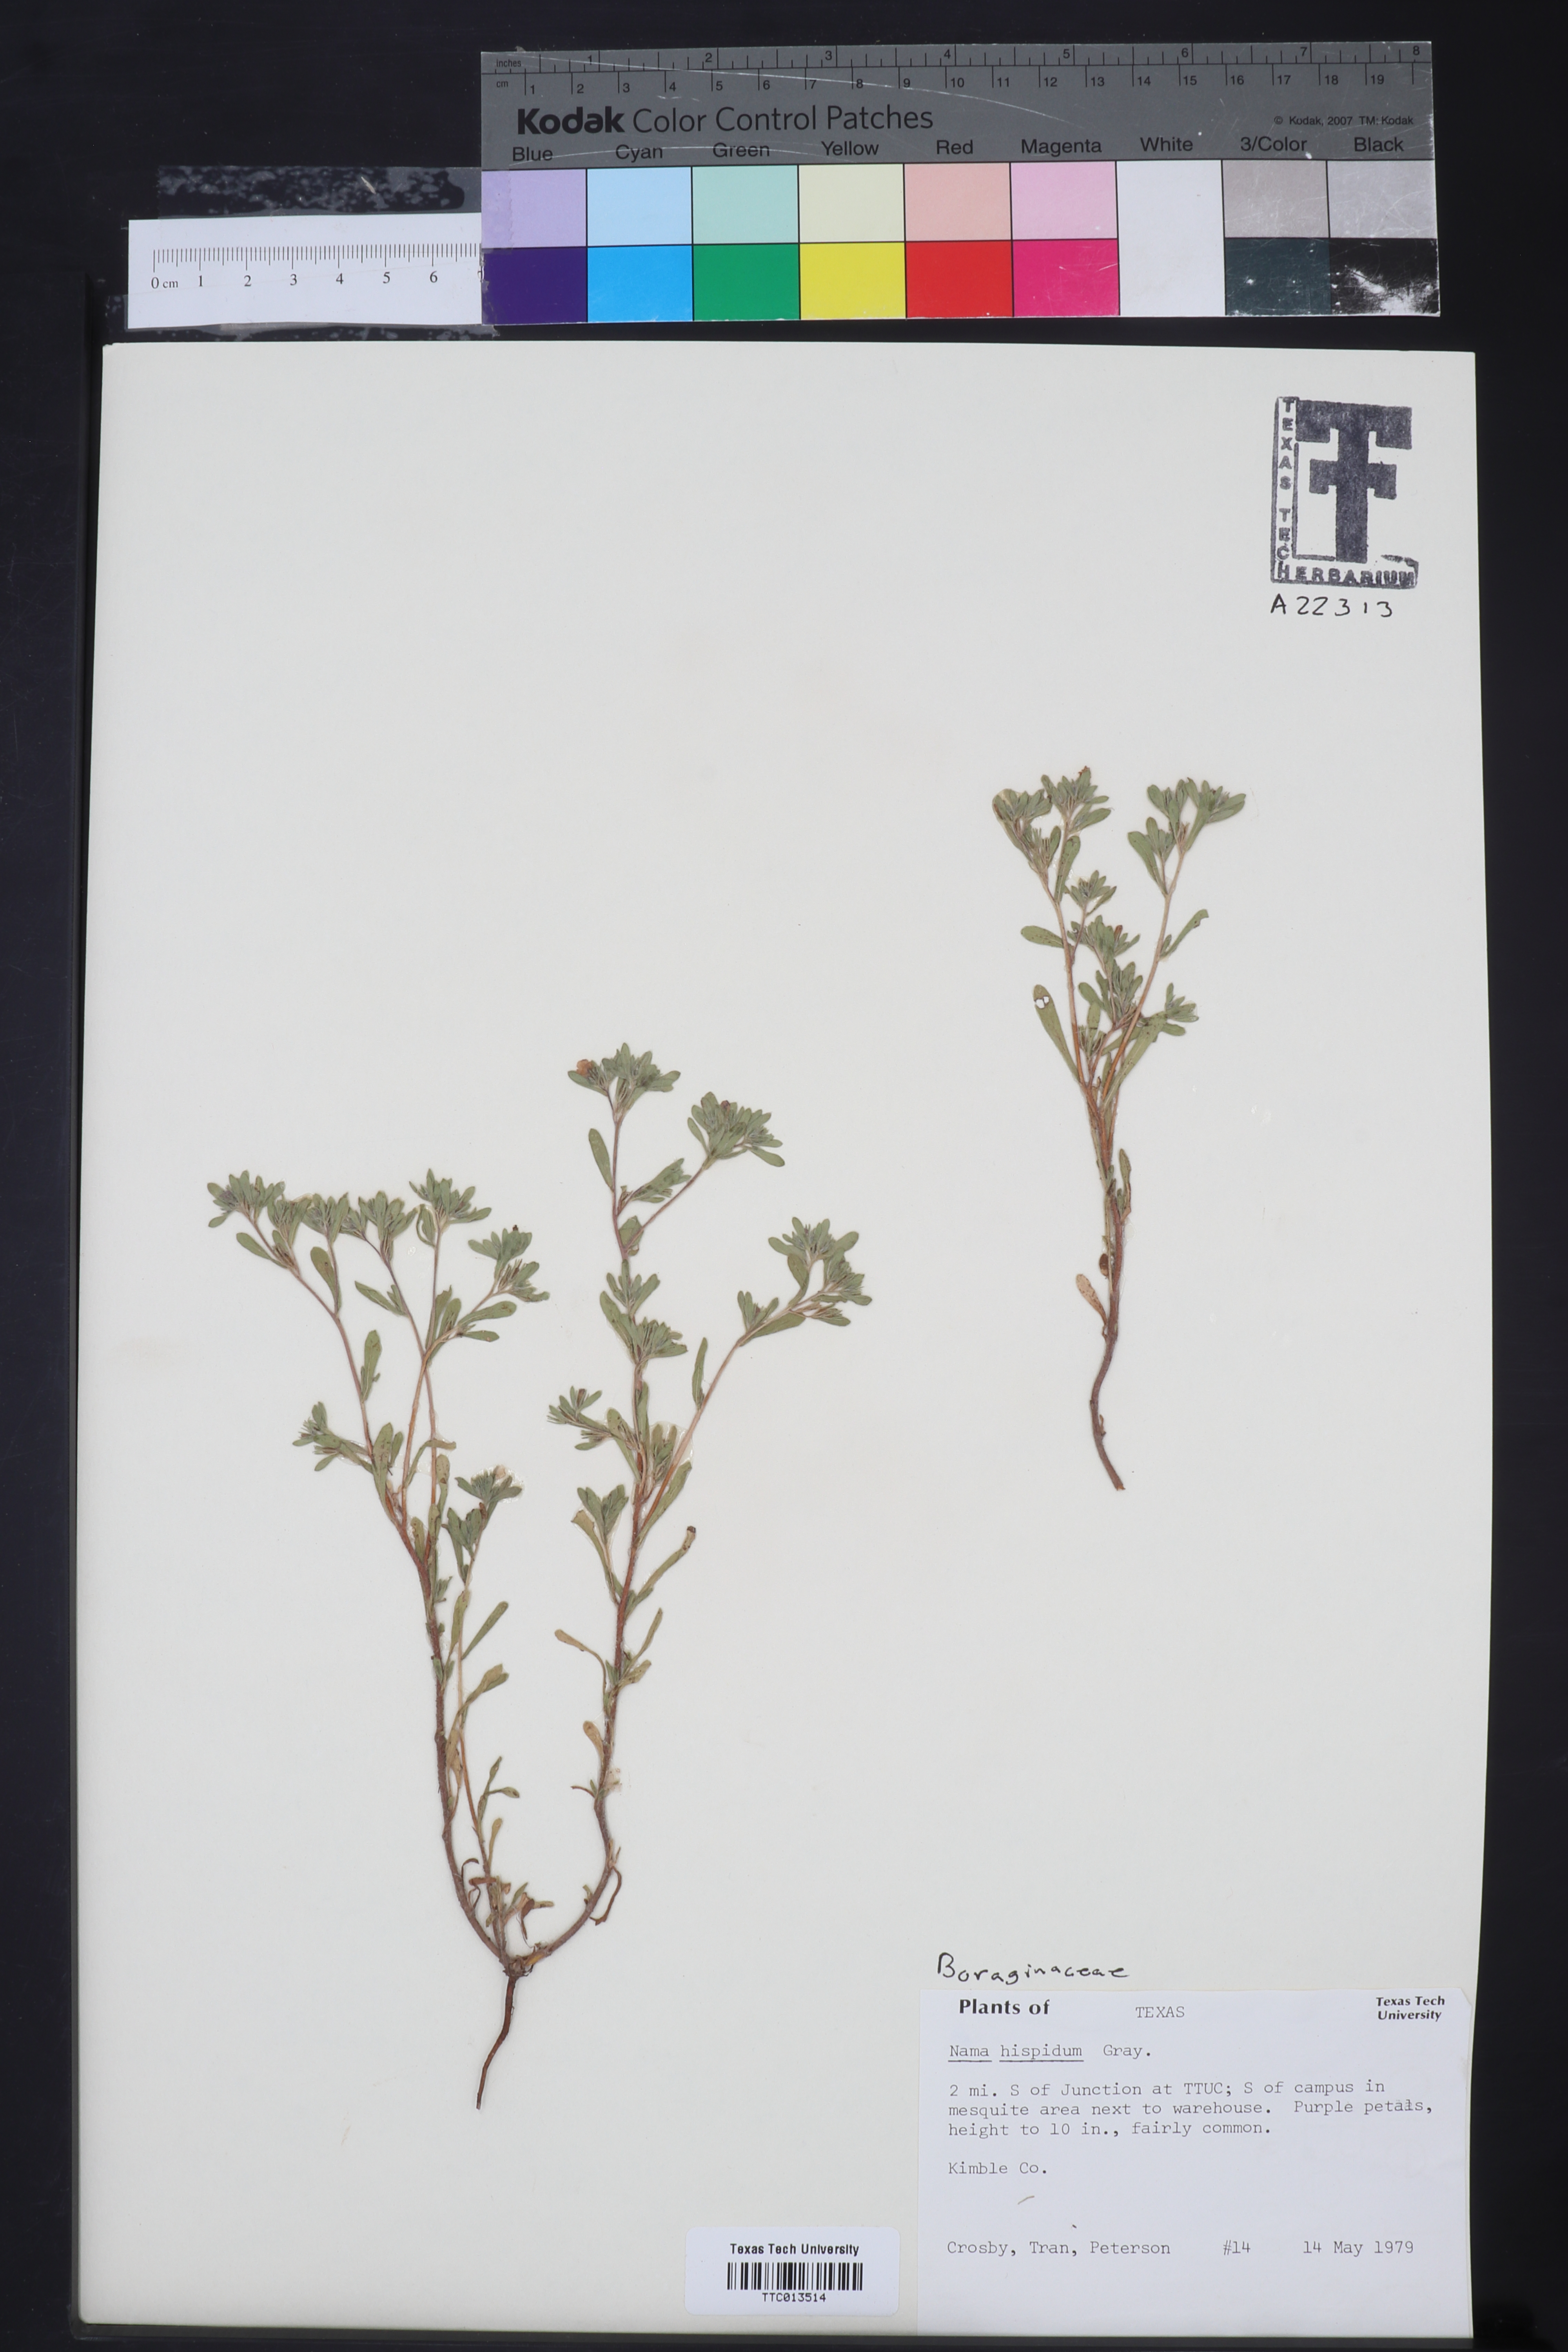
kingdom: Plantae
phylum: Tracheophyta
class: Magnoliopsida
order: Boraginales
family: Namaceae
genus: Nama
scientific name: Nama hispida
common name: Bristly nama
